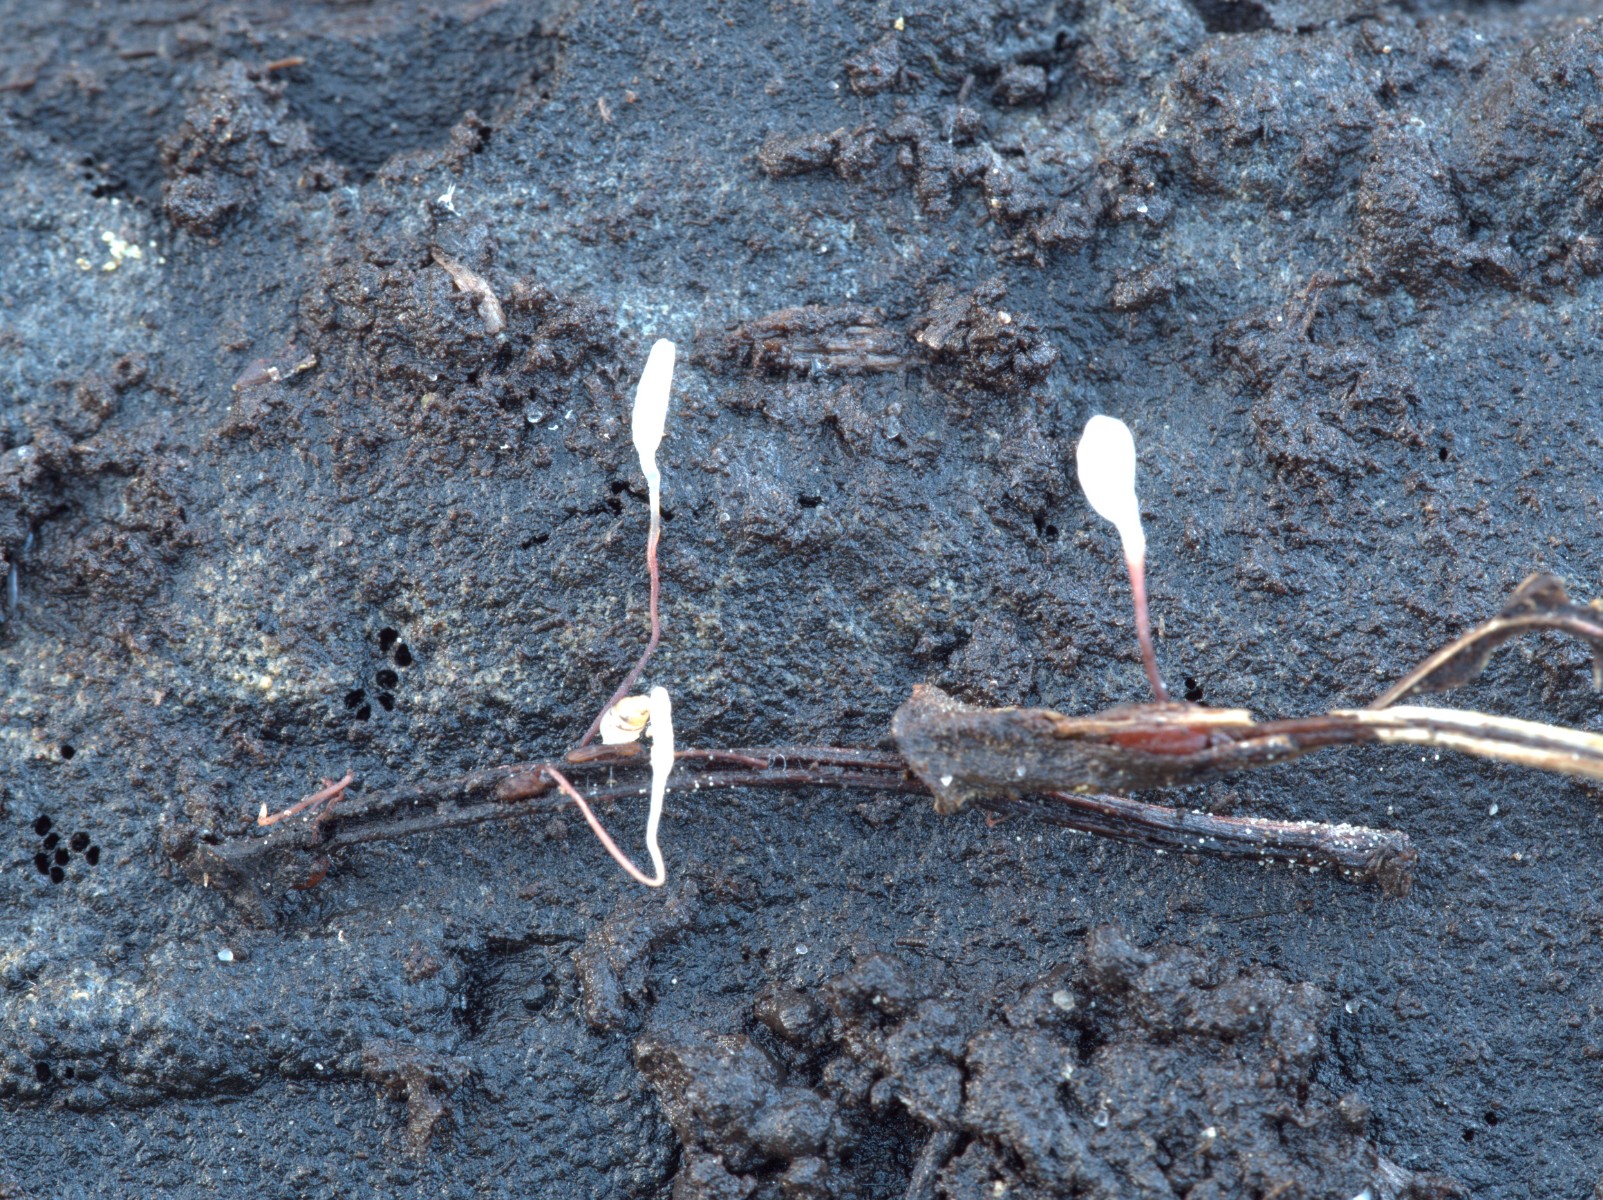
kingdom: Fungi
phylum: Basidiomycota
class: Agaricomycetes
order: Agaricales
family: Typhulaceae
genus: Typhula
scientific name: Typhula erythropus
